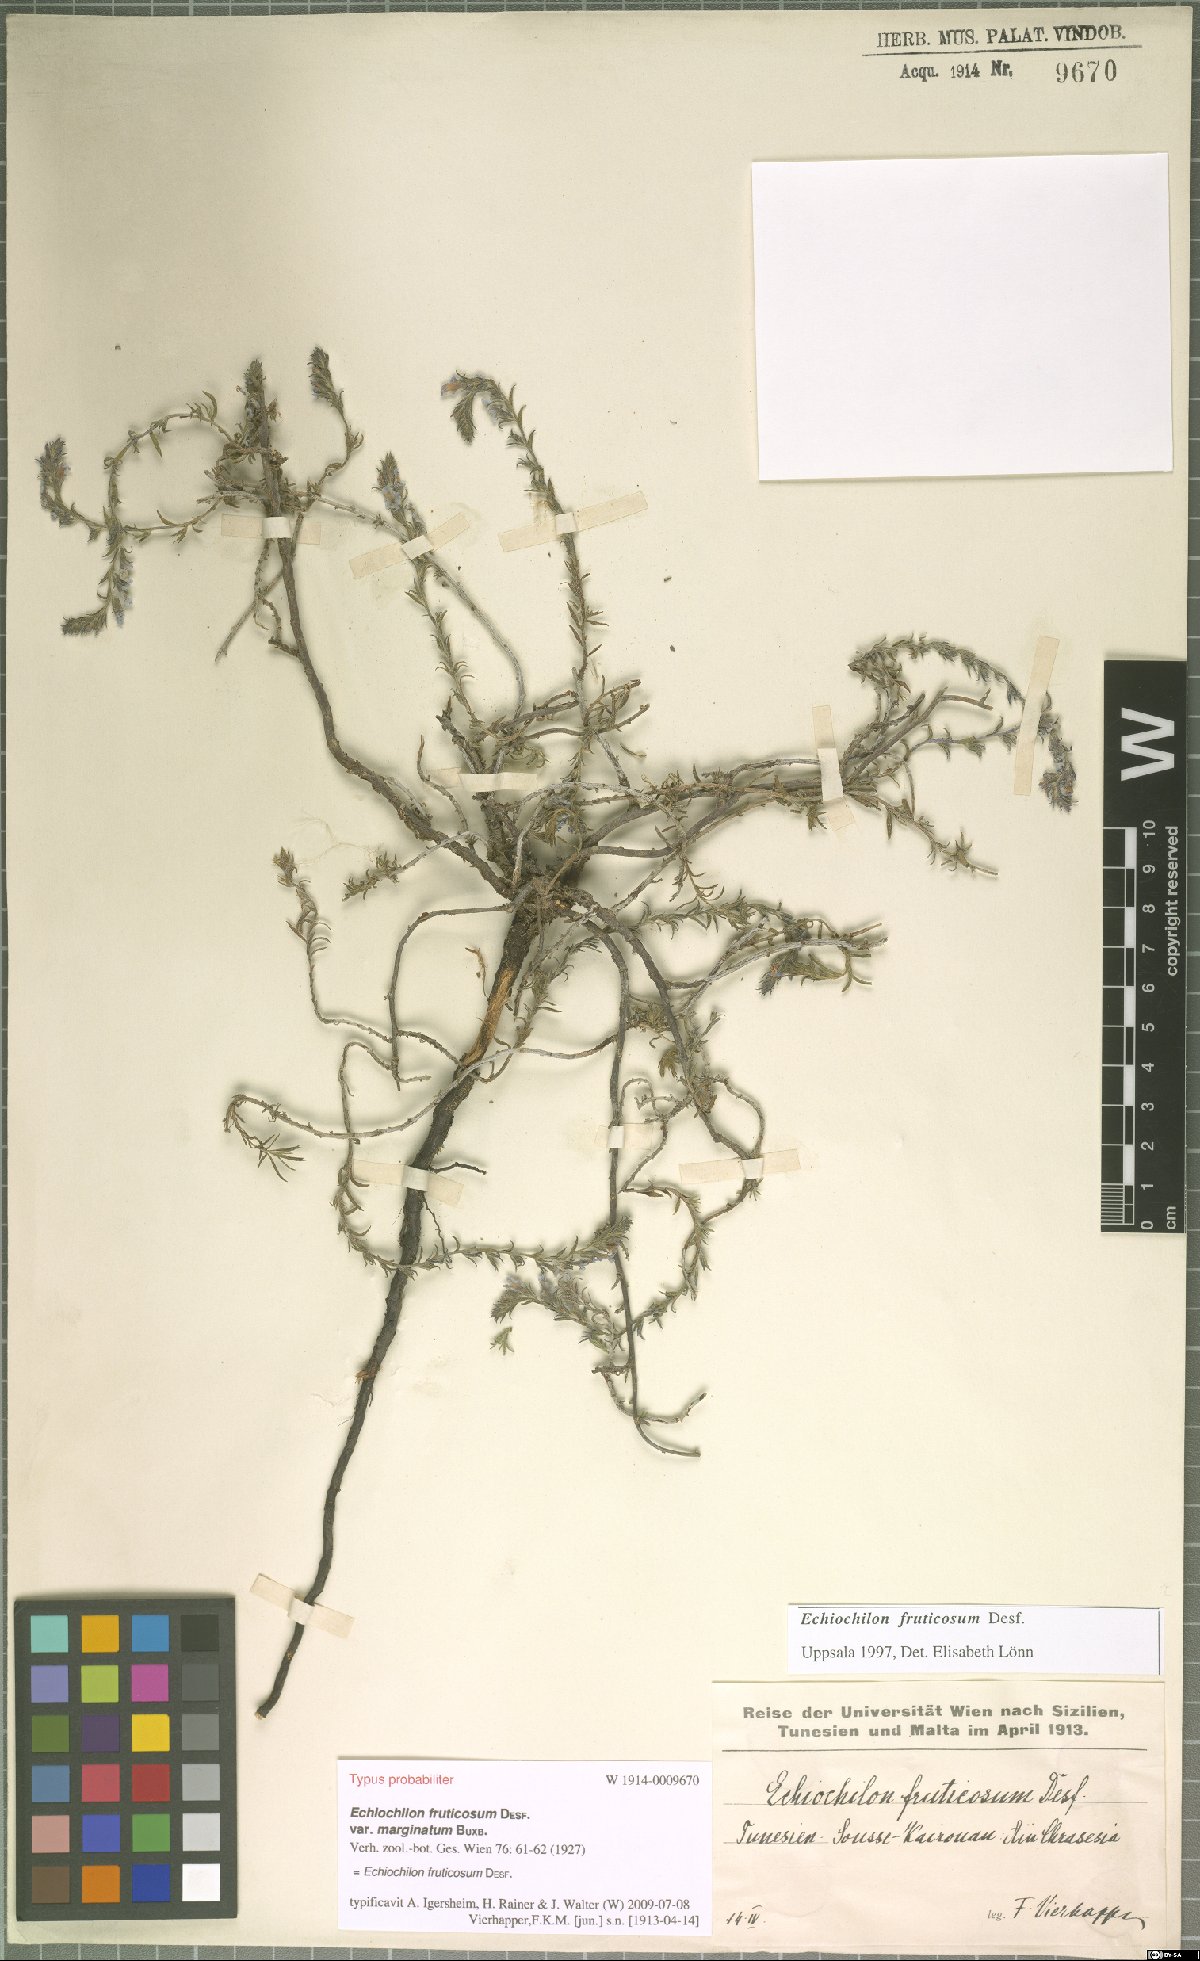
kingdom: Plantae
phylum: Tracheophyta
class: Magnoliopsida
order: Boraginales
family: Boraginaceae
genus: Echiochilon
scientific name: Echiochilon fruticosum
